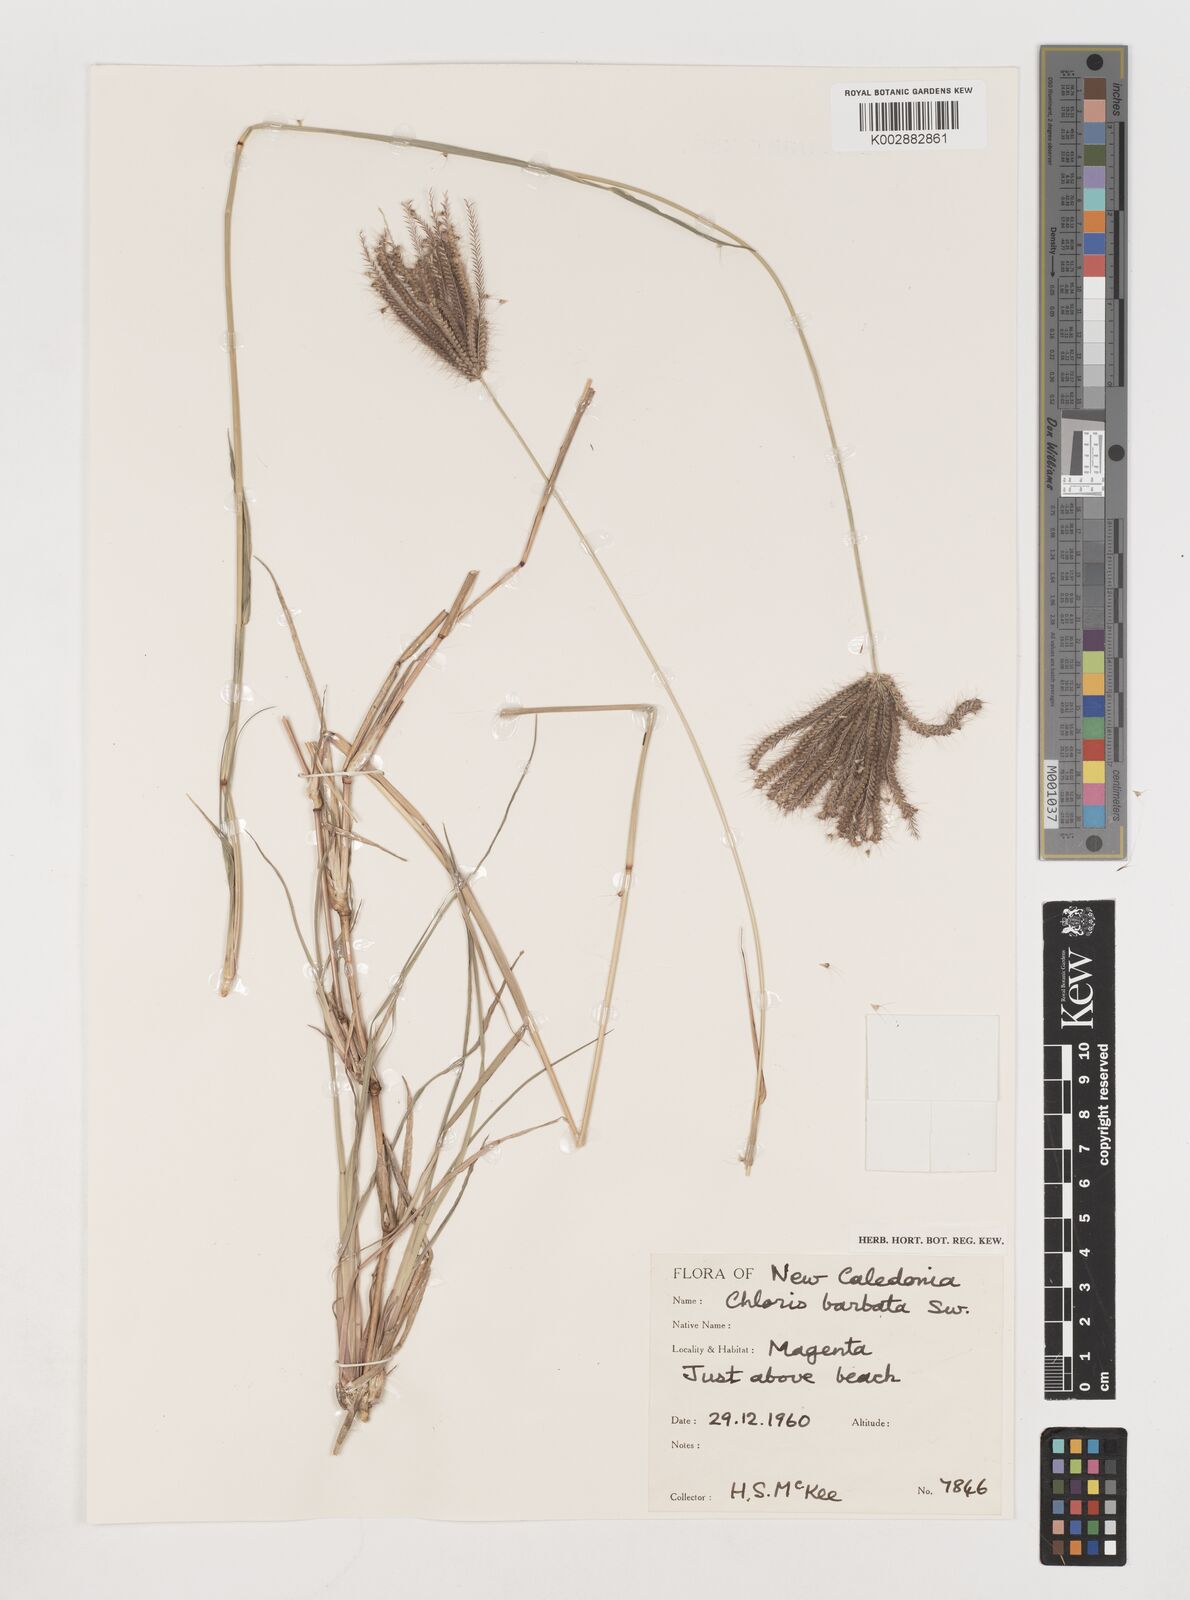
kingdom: Plantae
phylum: Tracheophyta
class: Liliopsida
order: Poales
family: Poaceae
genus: Chloris
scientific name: Chloris barbata
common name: Swollen fingergrass
